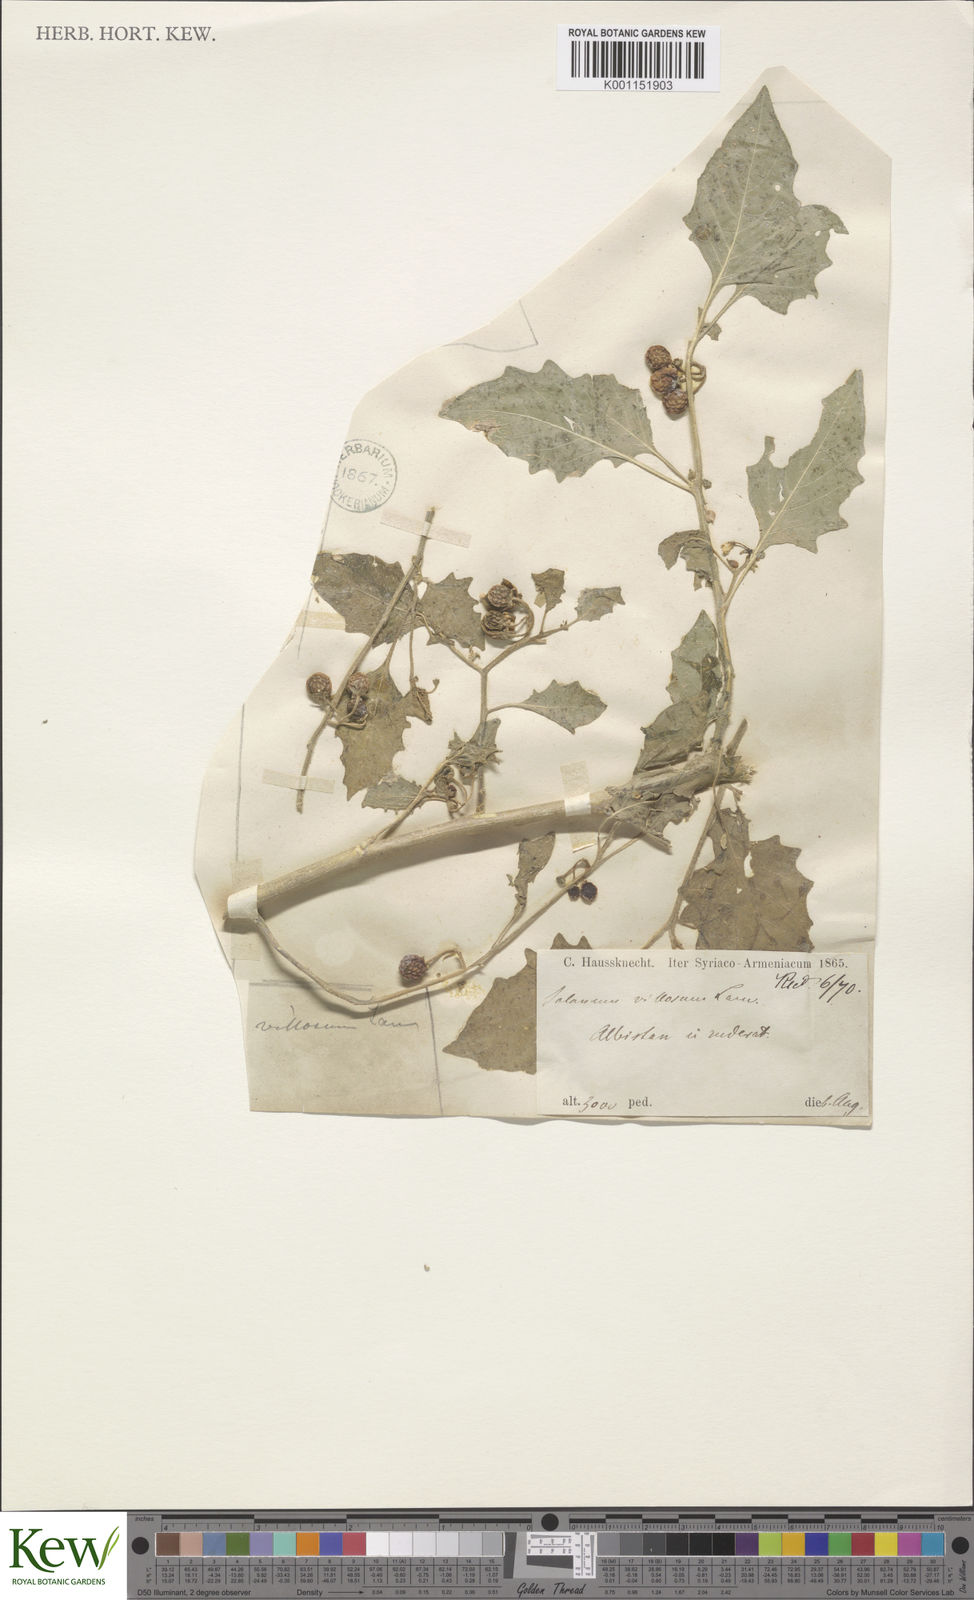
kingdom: Plantae
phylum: Tracheophyta
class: Magnoliopsida
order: Solanales
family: Solanaceae
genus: Solanum
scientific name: Solanum villosum
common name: Red nightshade
